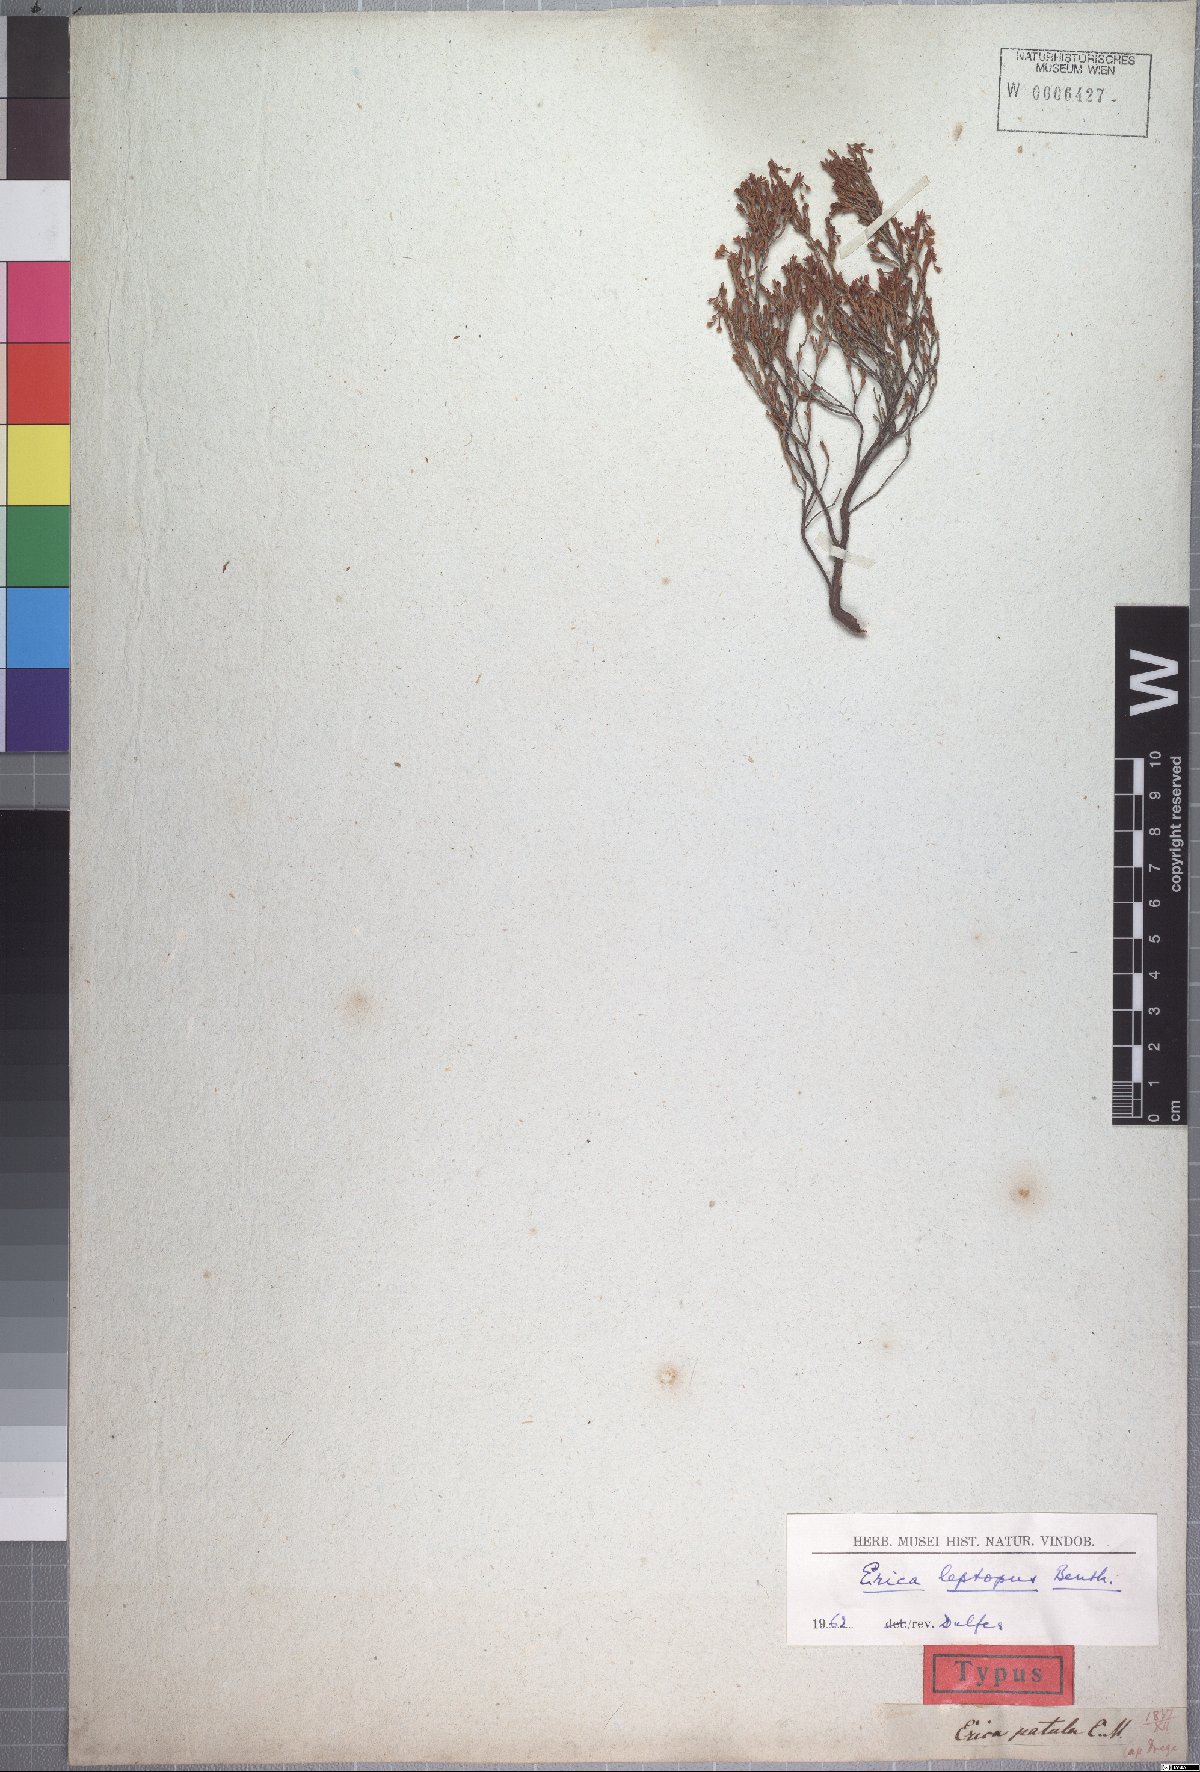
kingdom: Plantae
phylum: Tracheophyta
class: Magnoliopsida
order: Ericales
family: Ericaceae
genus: Erica
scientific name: Erica leptopus
